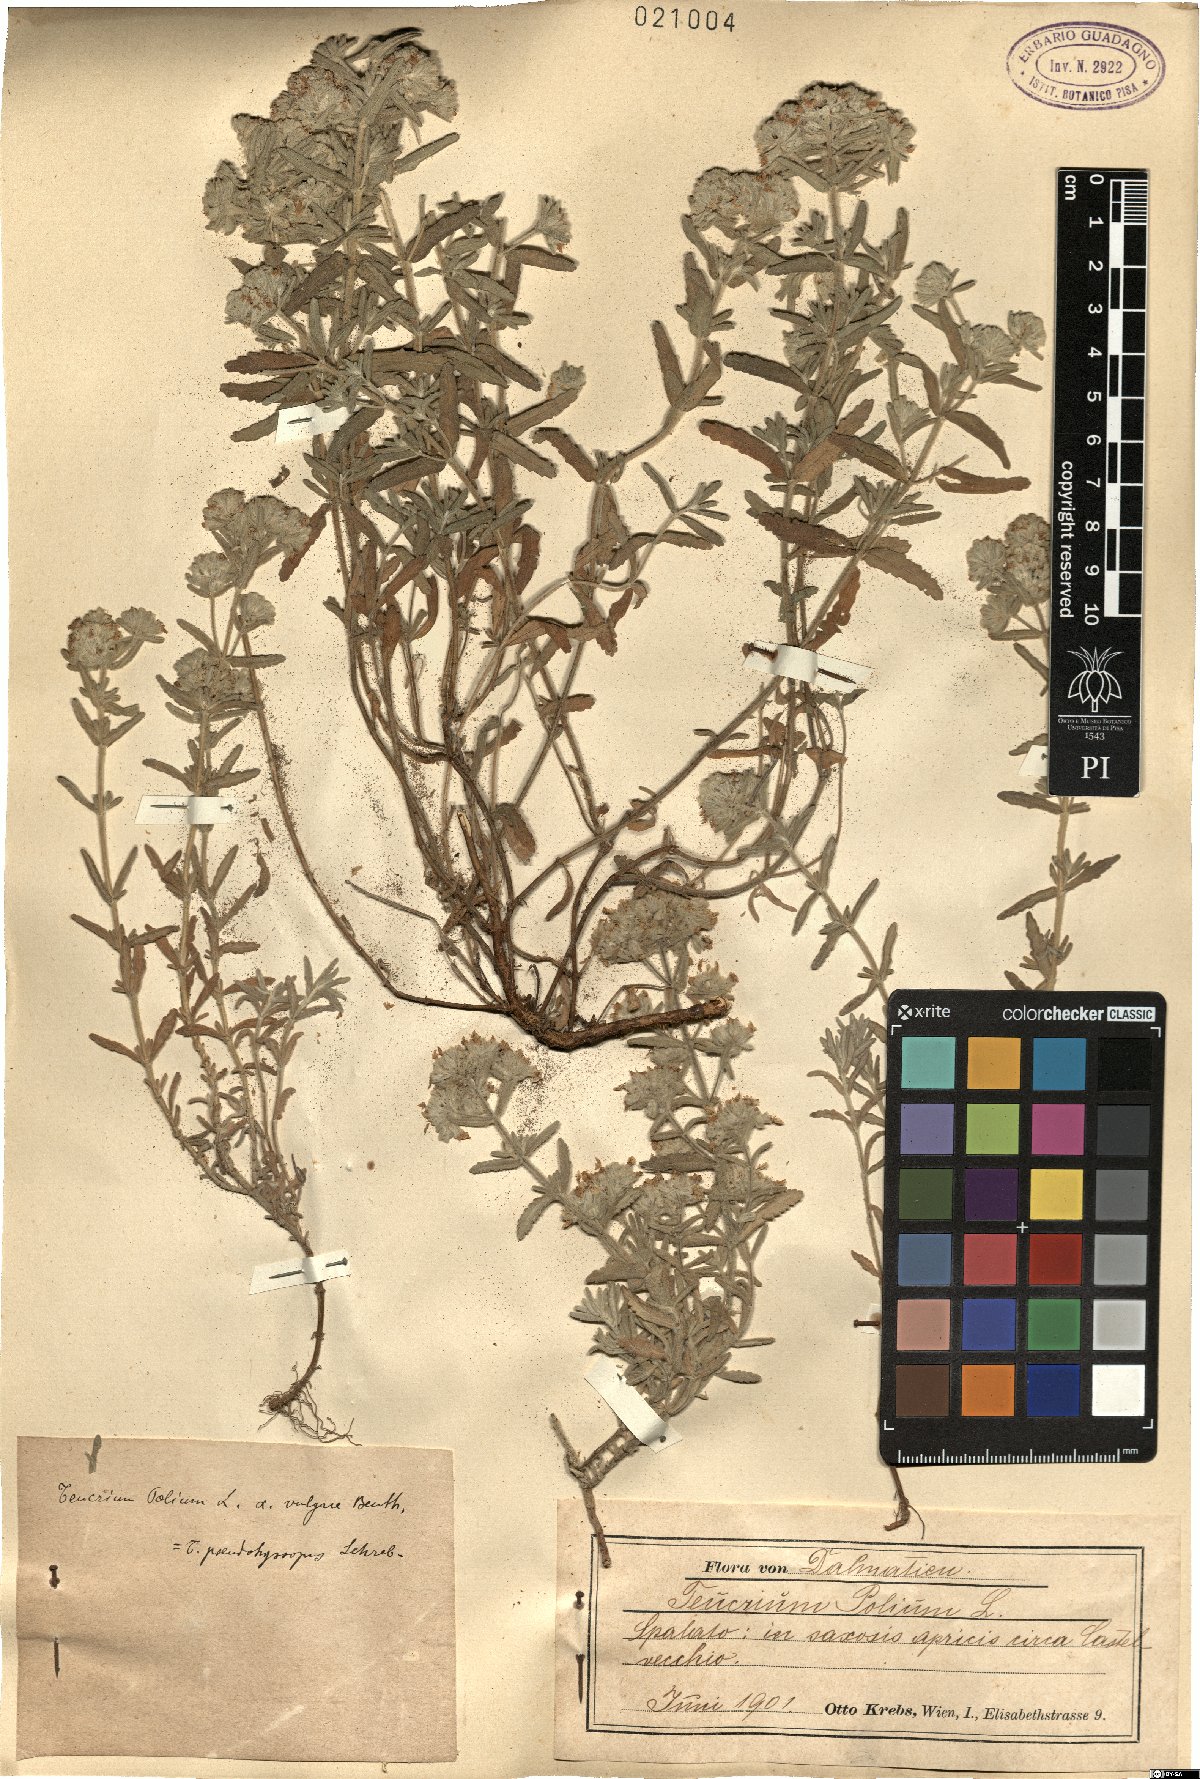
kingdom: Plantae
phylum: Tracheophyta
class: Magnoliopsida
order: Lamiales
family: Lamiaceae
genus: Teucrium
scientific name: Teucrium polium
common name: Poley
